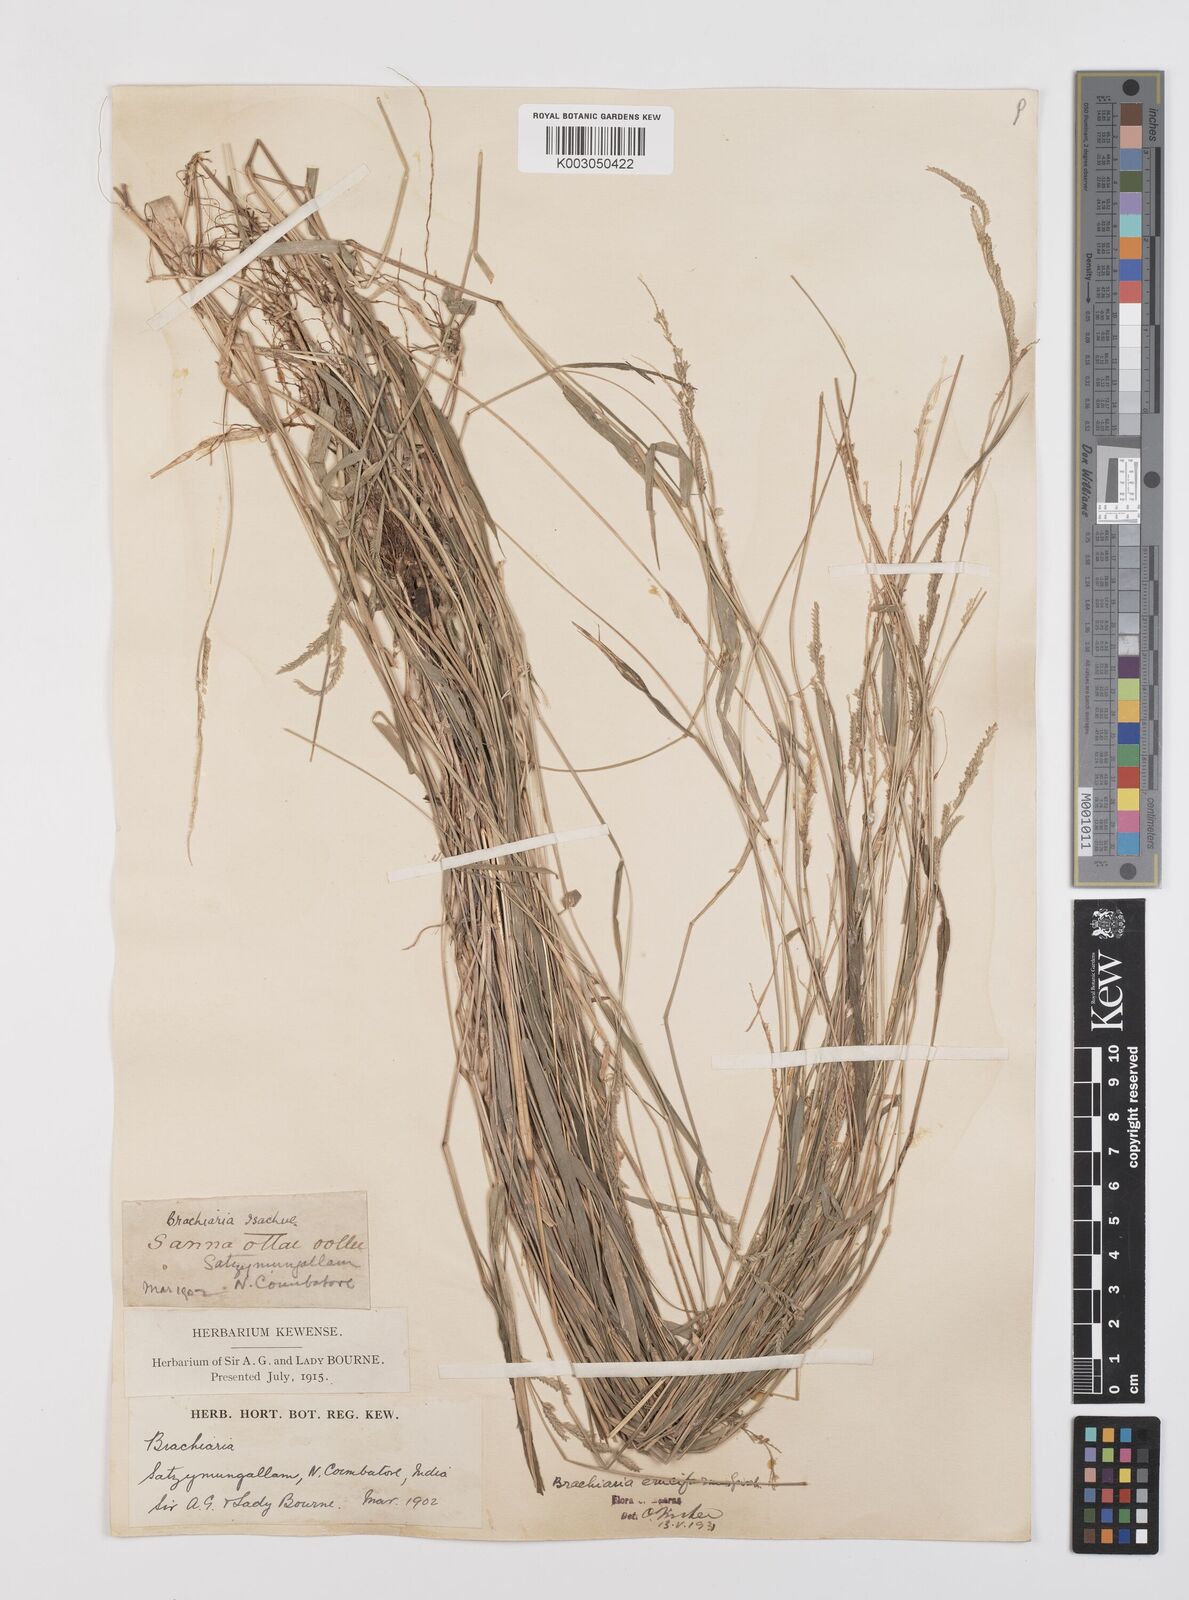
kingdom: Plantae
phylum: Tracheophyta
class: Liliopsida
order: Poales
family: Poaceae
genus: Moorochloa
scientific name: Moorochloa eruciformis
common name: Sweet signalgrass
